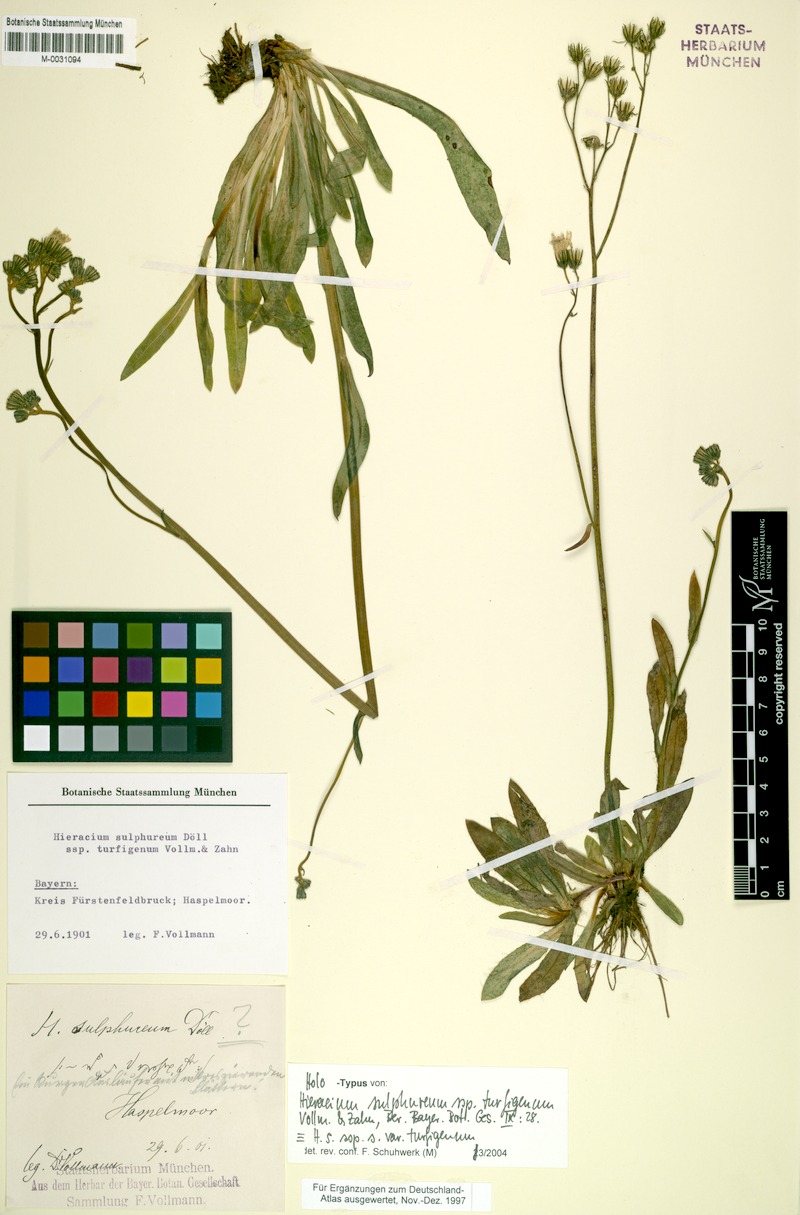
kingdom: Plantae
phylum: Tracheophyta
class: Magnoliopsida
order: Asterales
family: Asteraceae
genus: Pilosella
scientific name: Pilosella sulphurea
